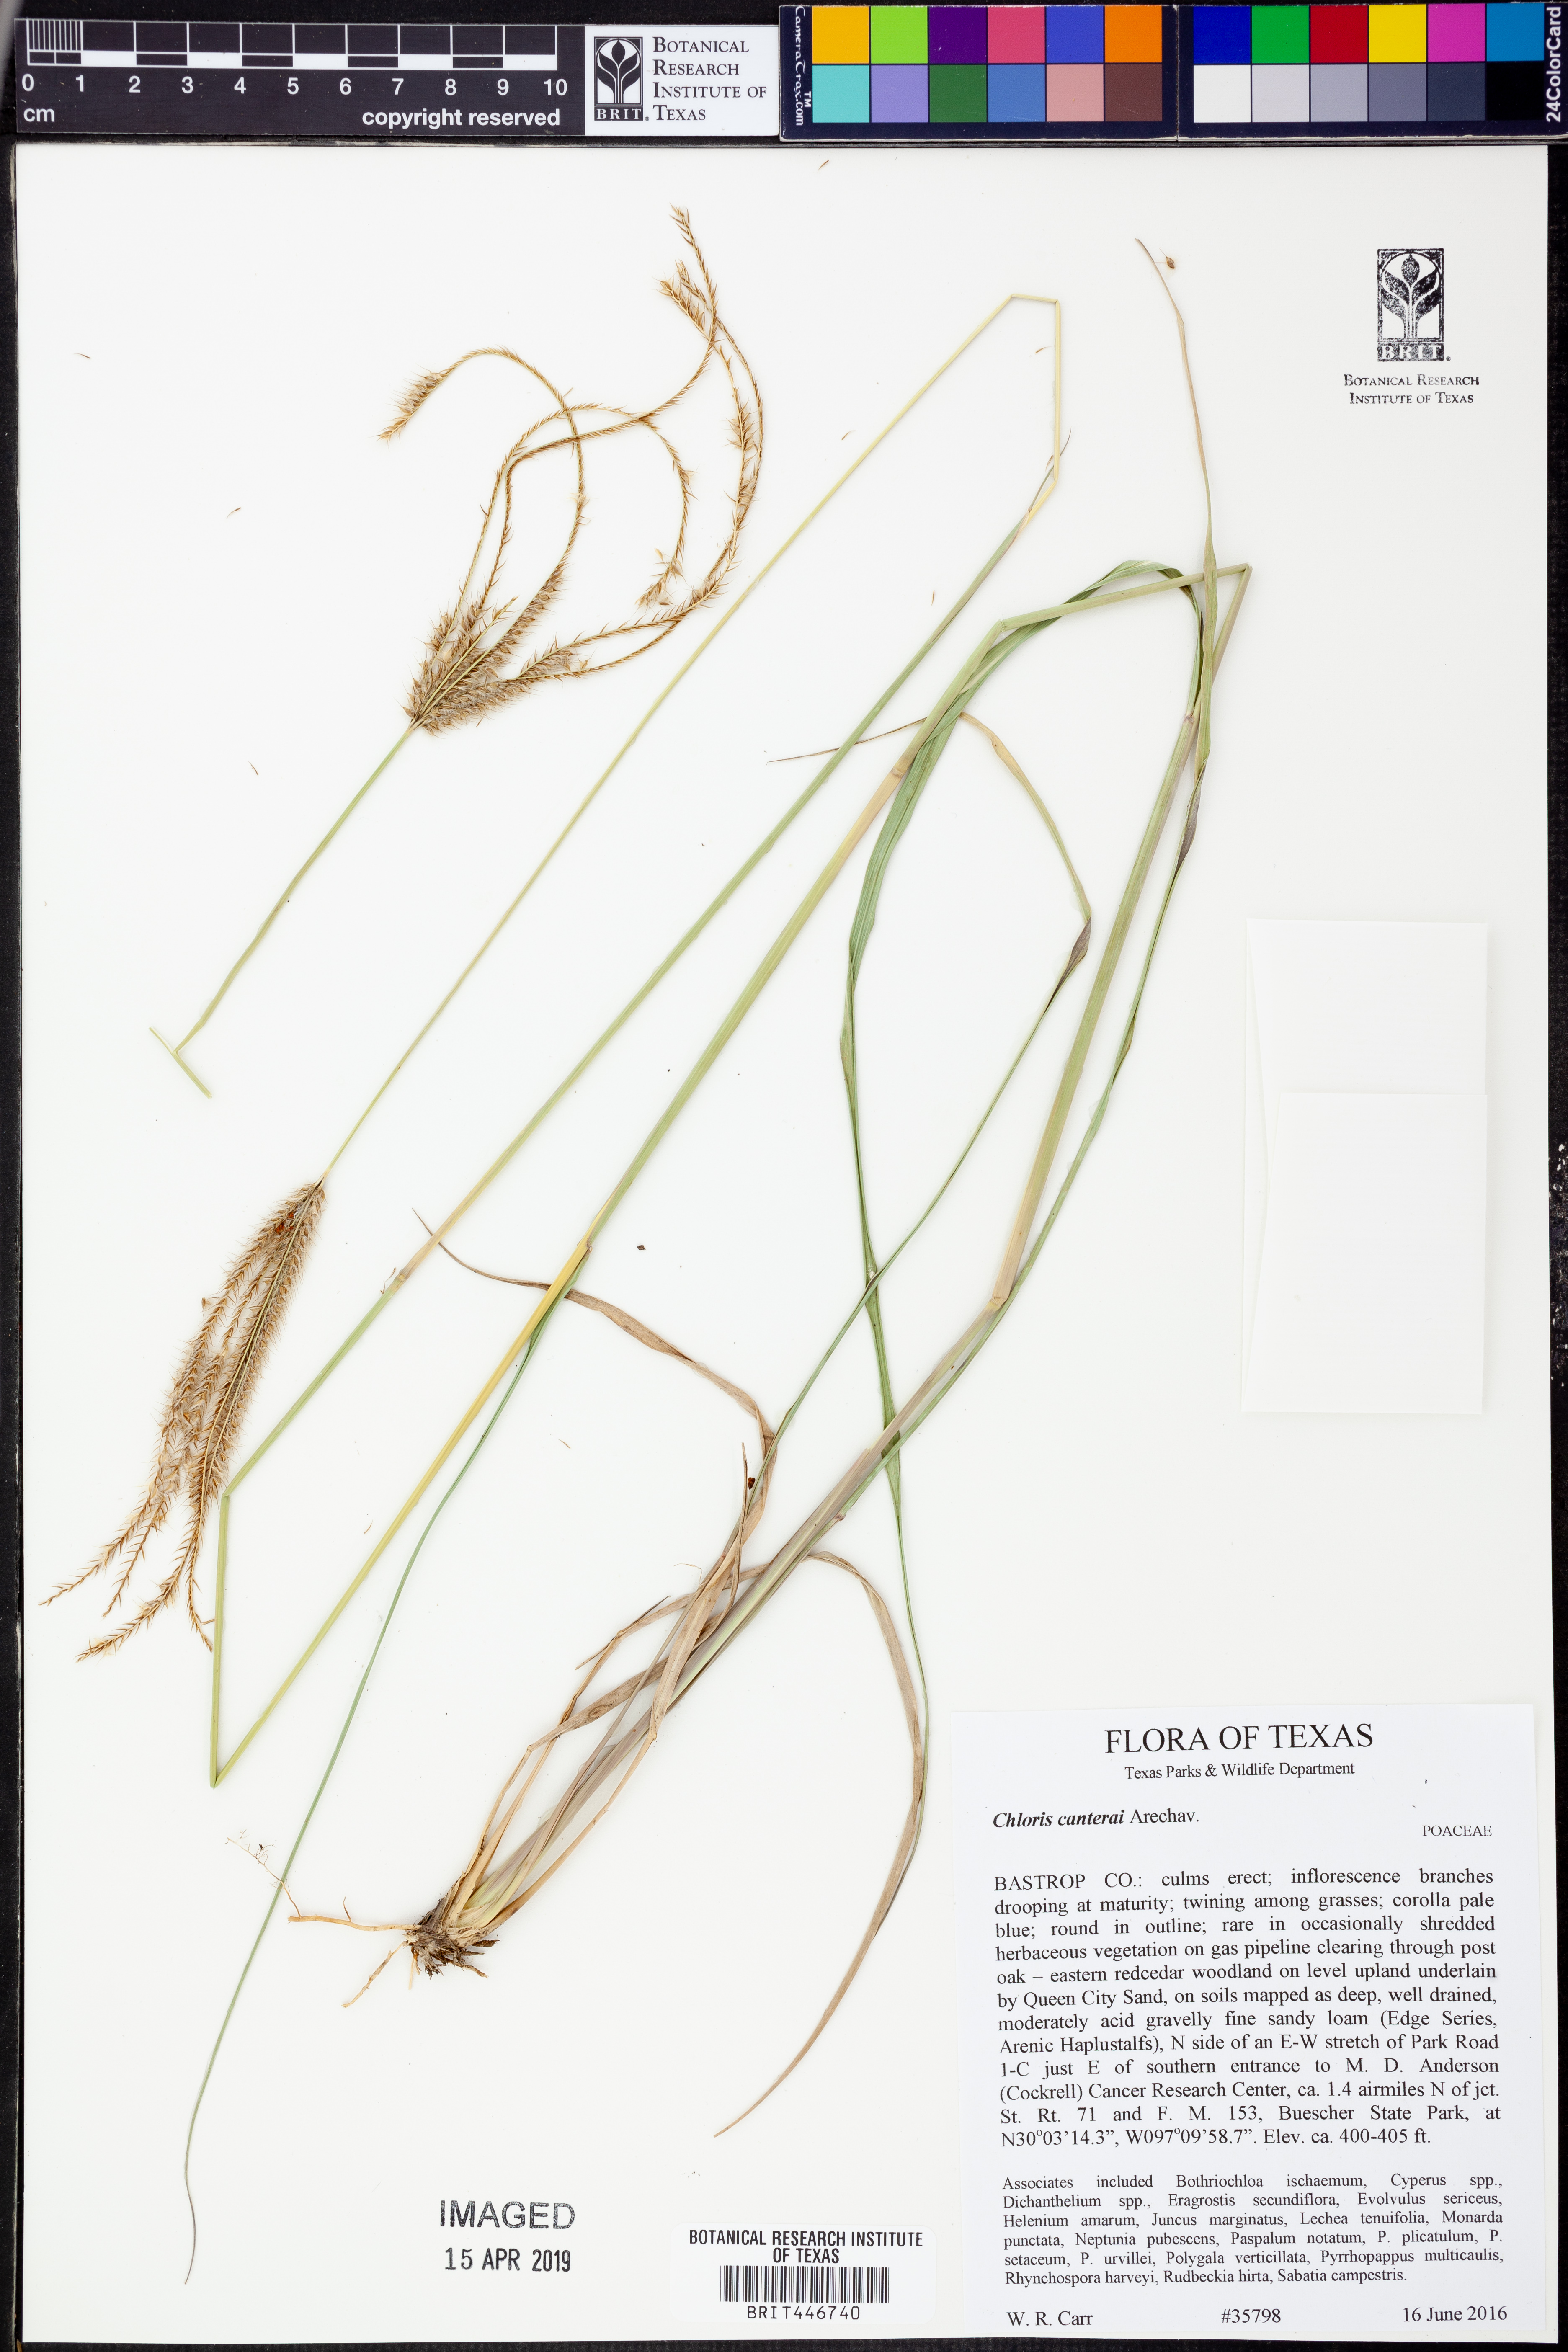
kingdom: Plantae
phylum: Tracheophyta
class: Liliopsida
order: Poales
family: Poaceae
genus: Stapfochloa
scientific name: Stapfochloa canterae
